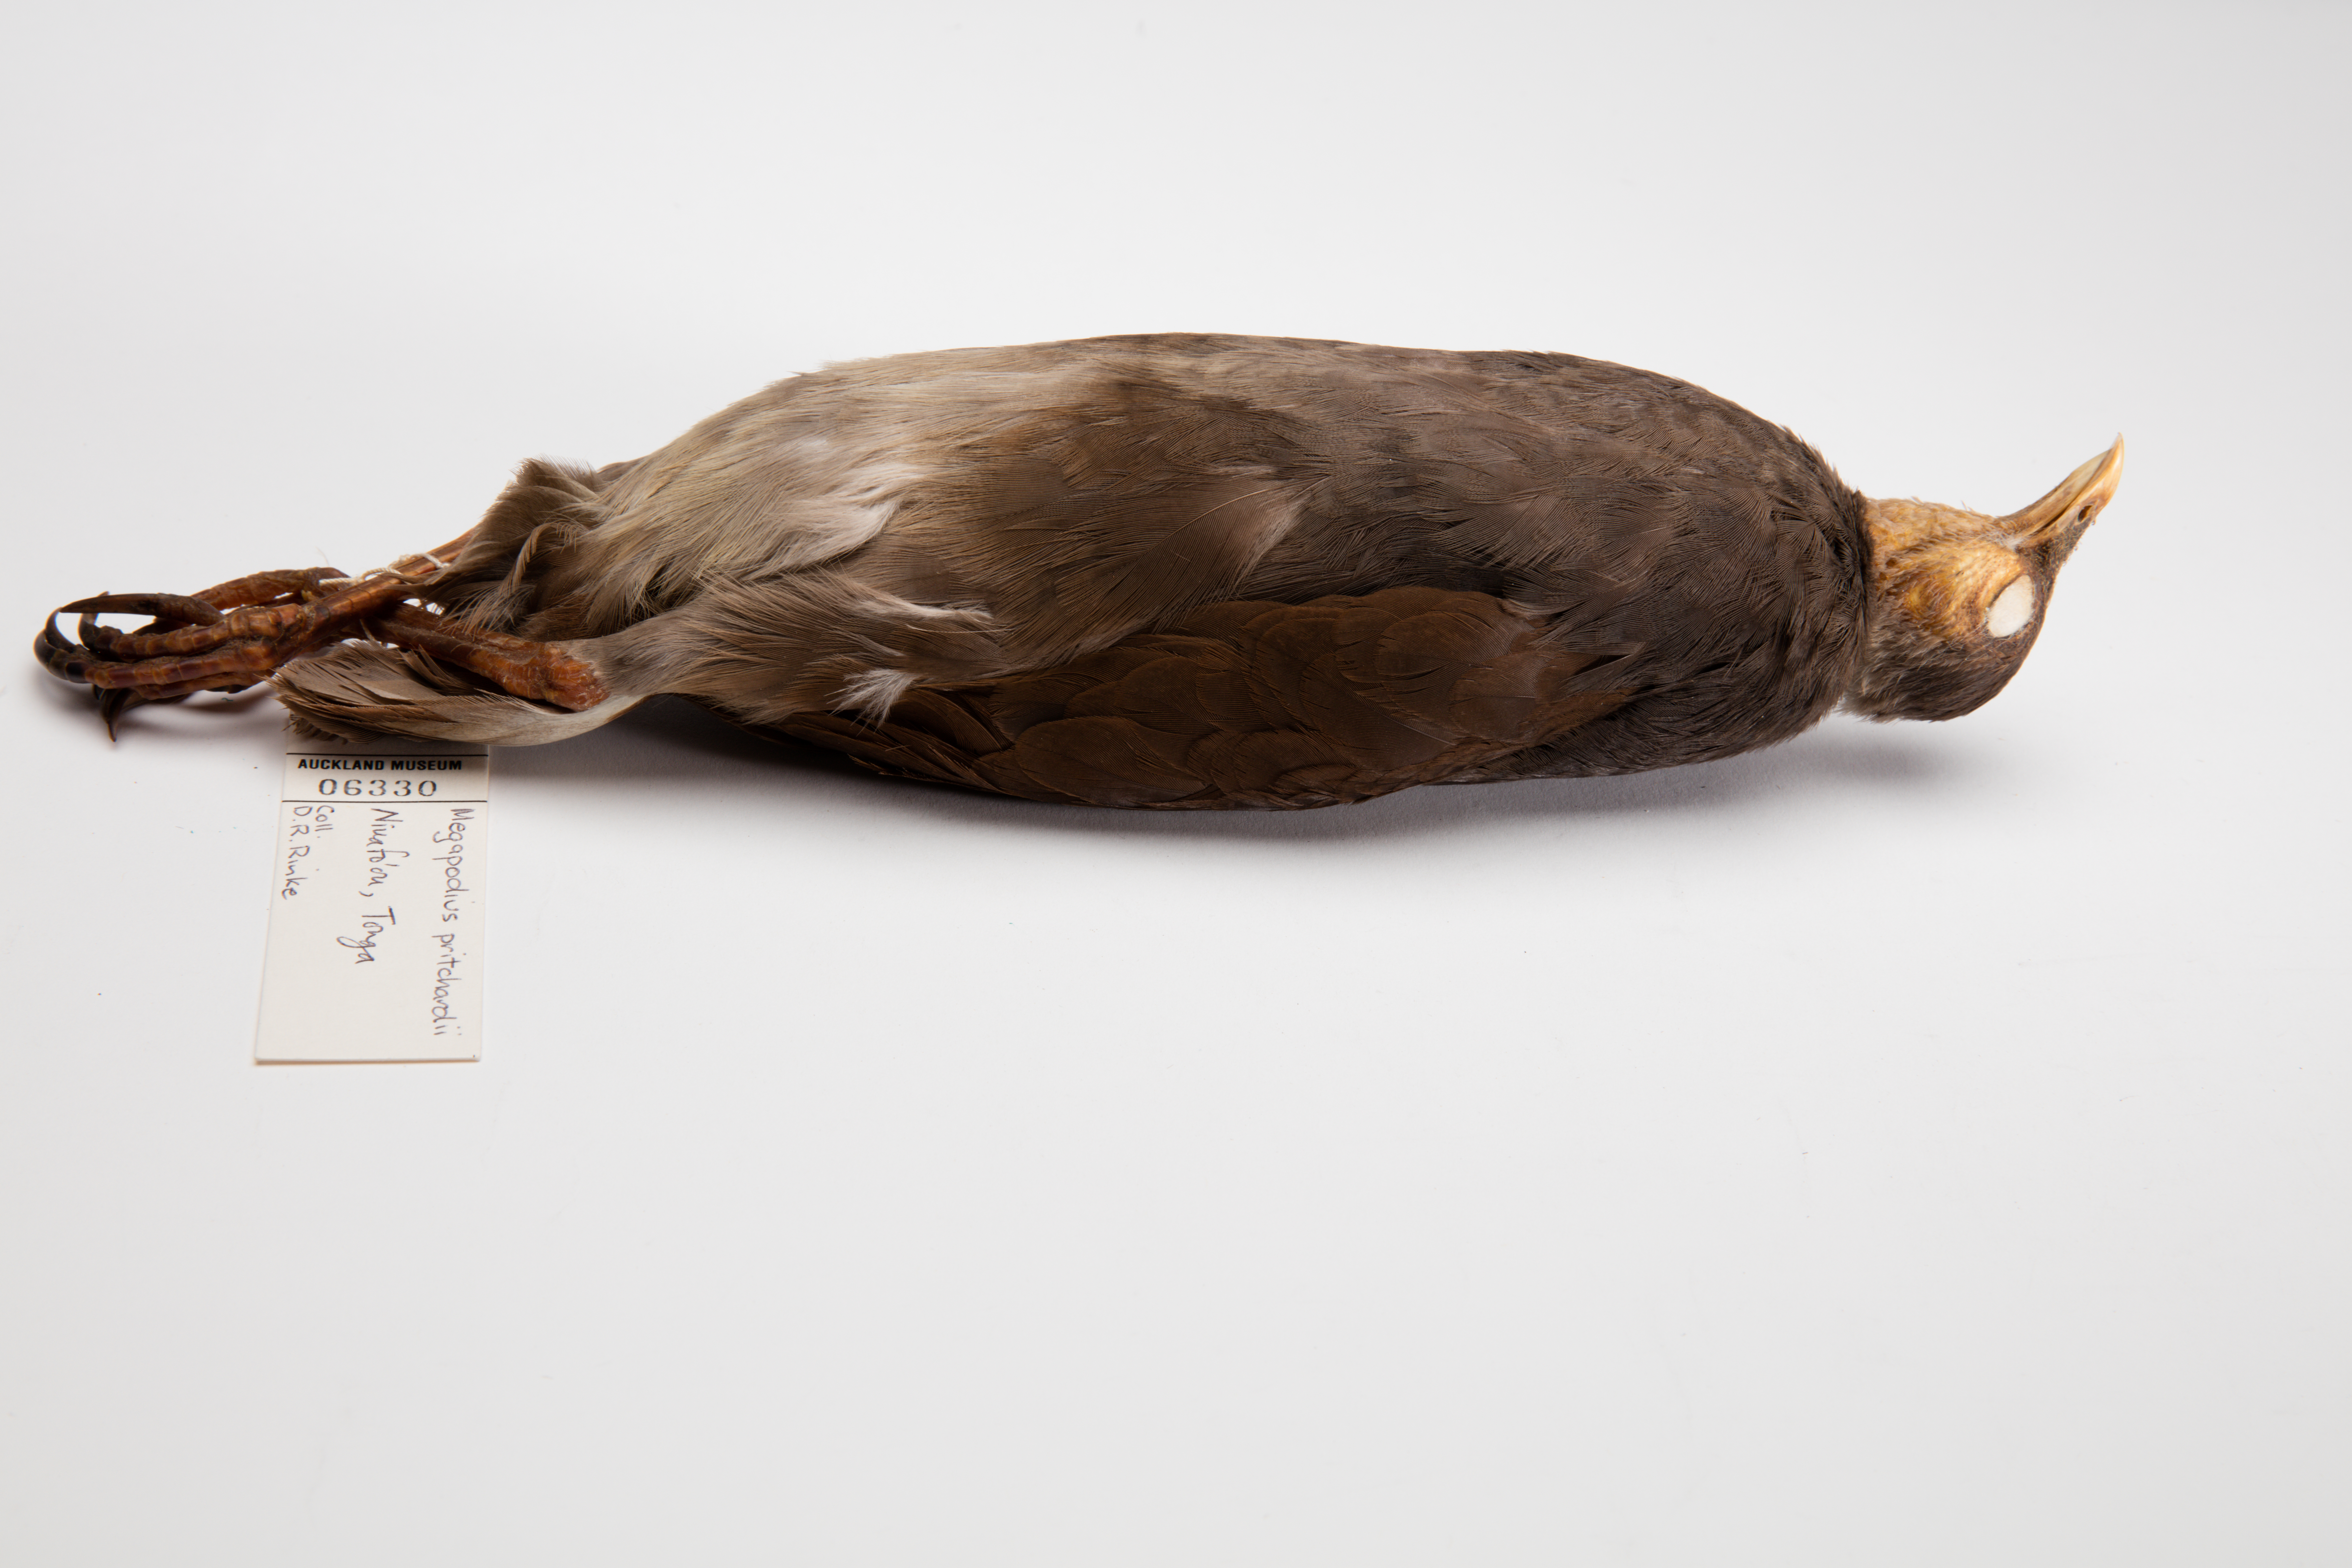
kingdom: Animalia
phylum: Chordata
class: Aves
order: Galliformes
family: Megapodiidae
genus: Megapodius
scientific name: Megapodius pritchardii
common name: Tongan megapode
